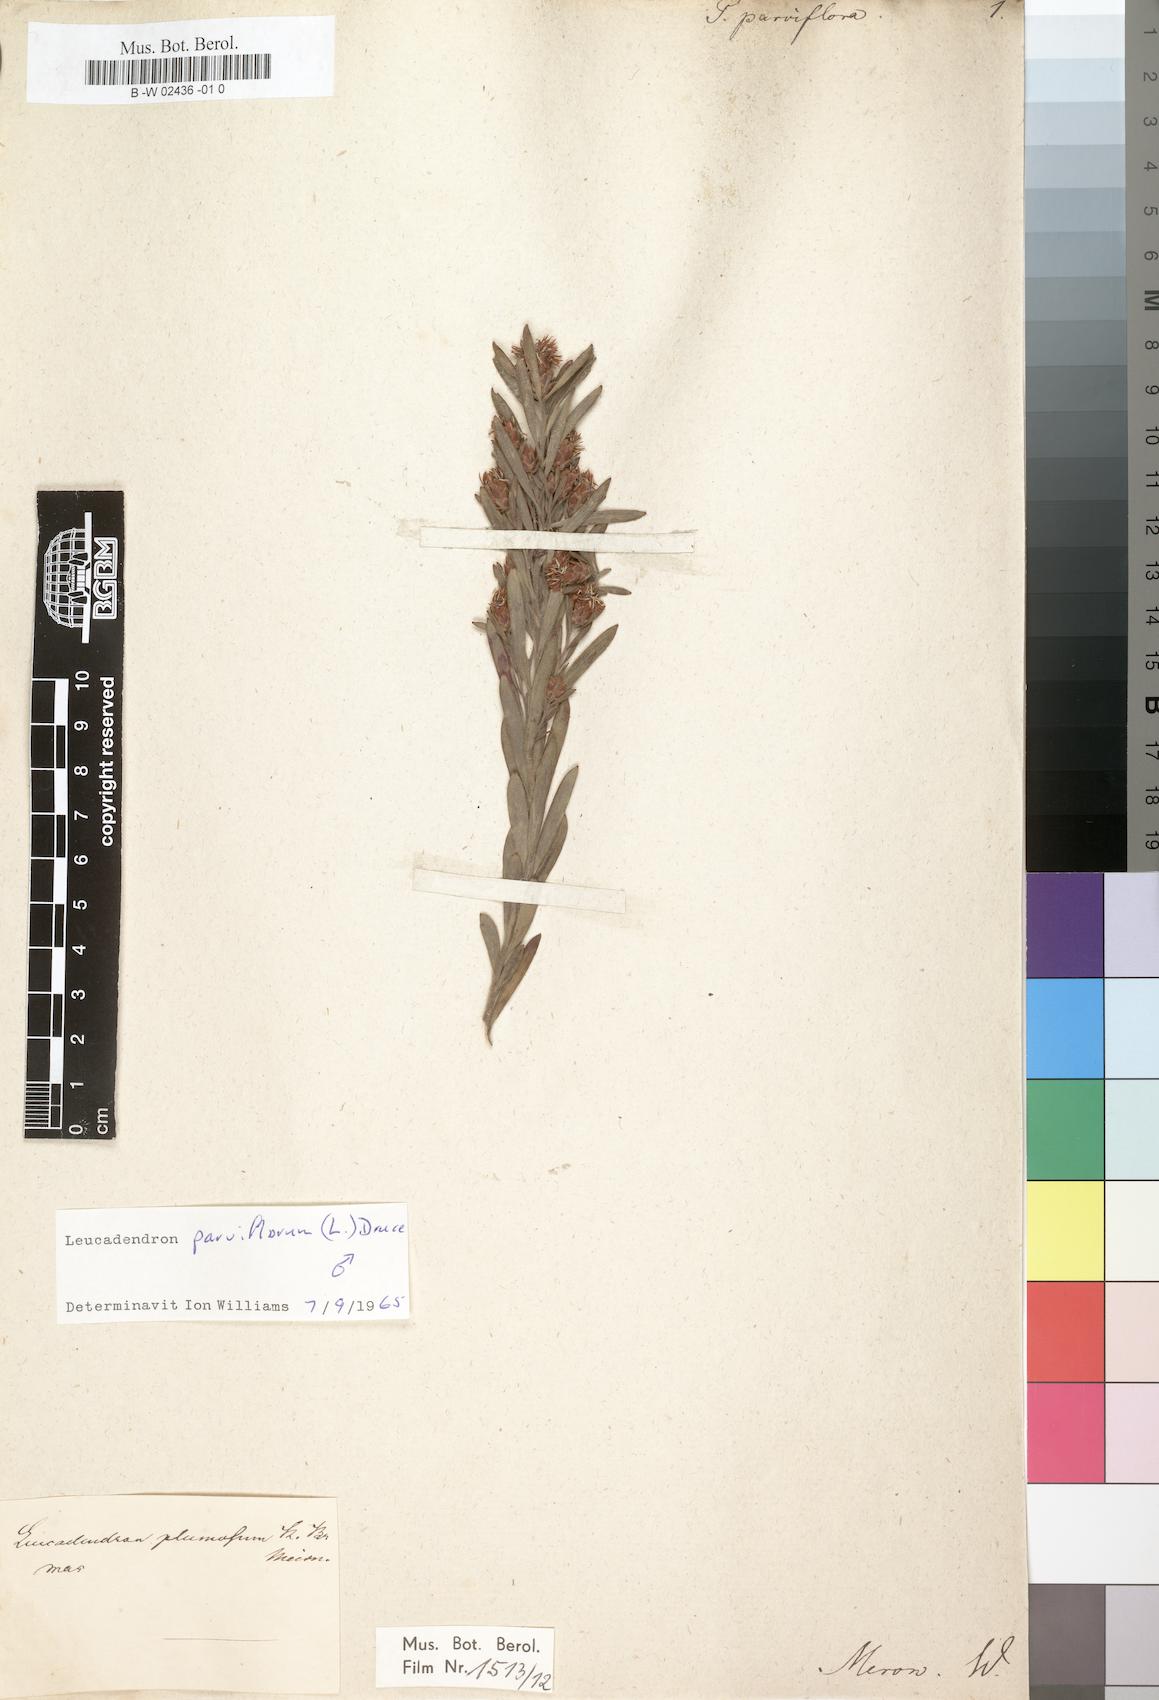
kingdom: Plantae
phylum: Tracheophyta
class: Magnoliopsida
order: Proteales
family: Proteaceae
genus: Leucadendron
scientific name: Leucadendron arcuatum
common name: Red-edge conebush
